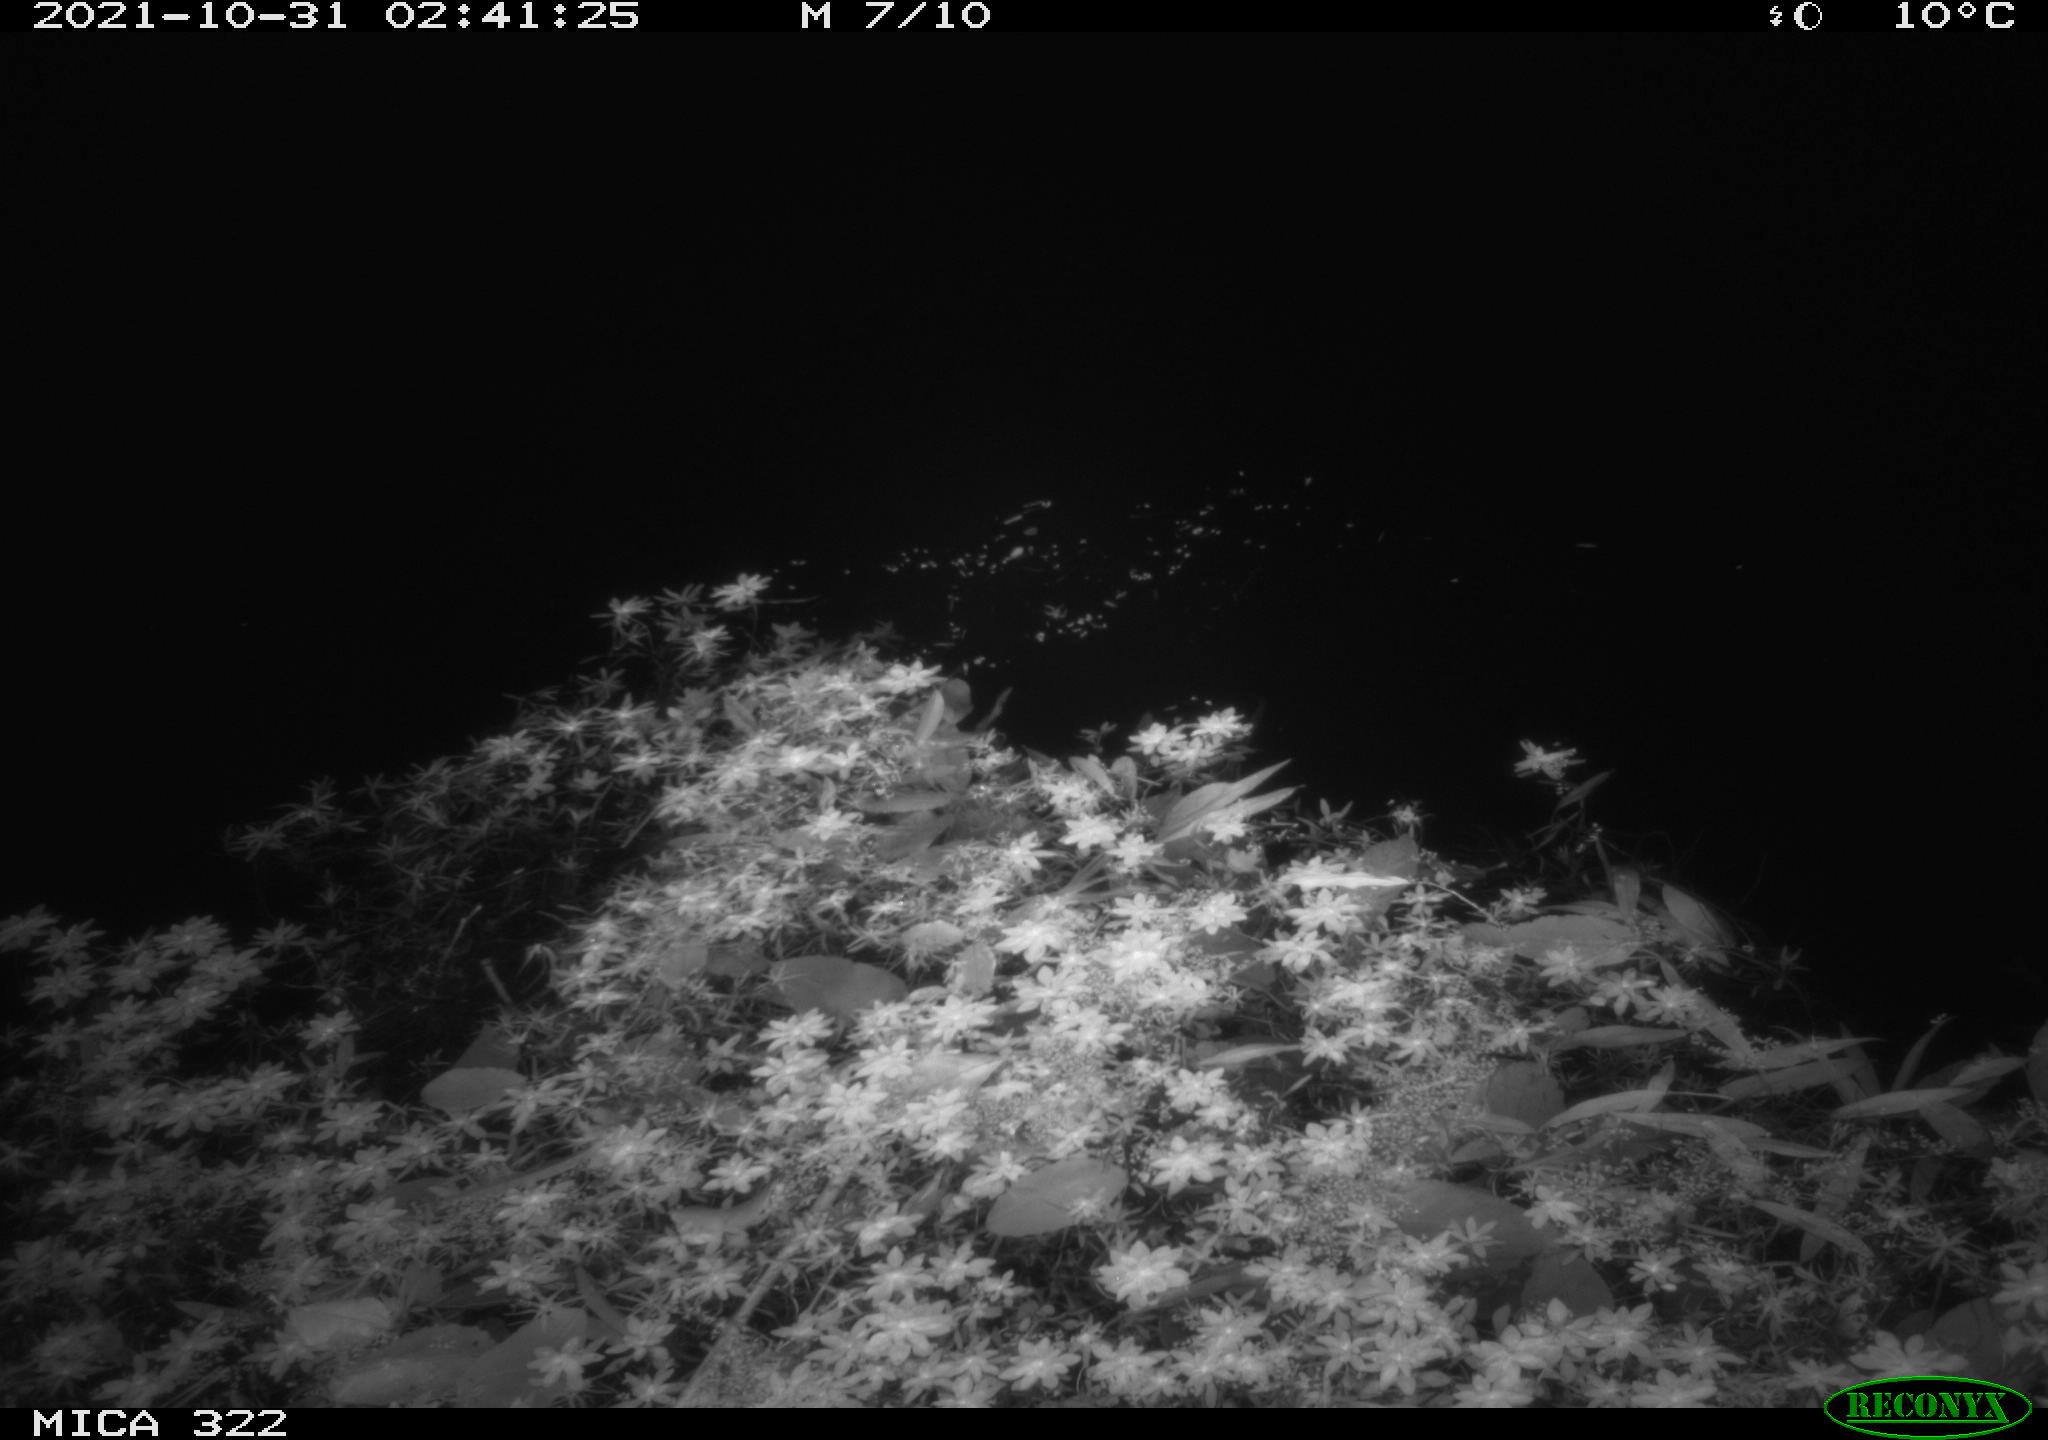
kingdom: Animalia
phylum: Chordata
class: Mammalia
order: Rodentia
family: Muridae
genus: Rattus
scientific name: Rattus norvegicus
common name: Brown rat
